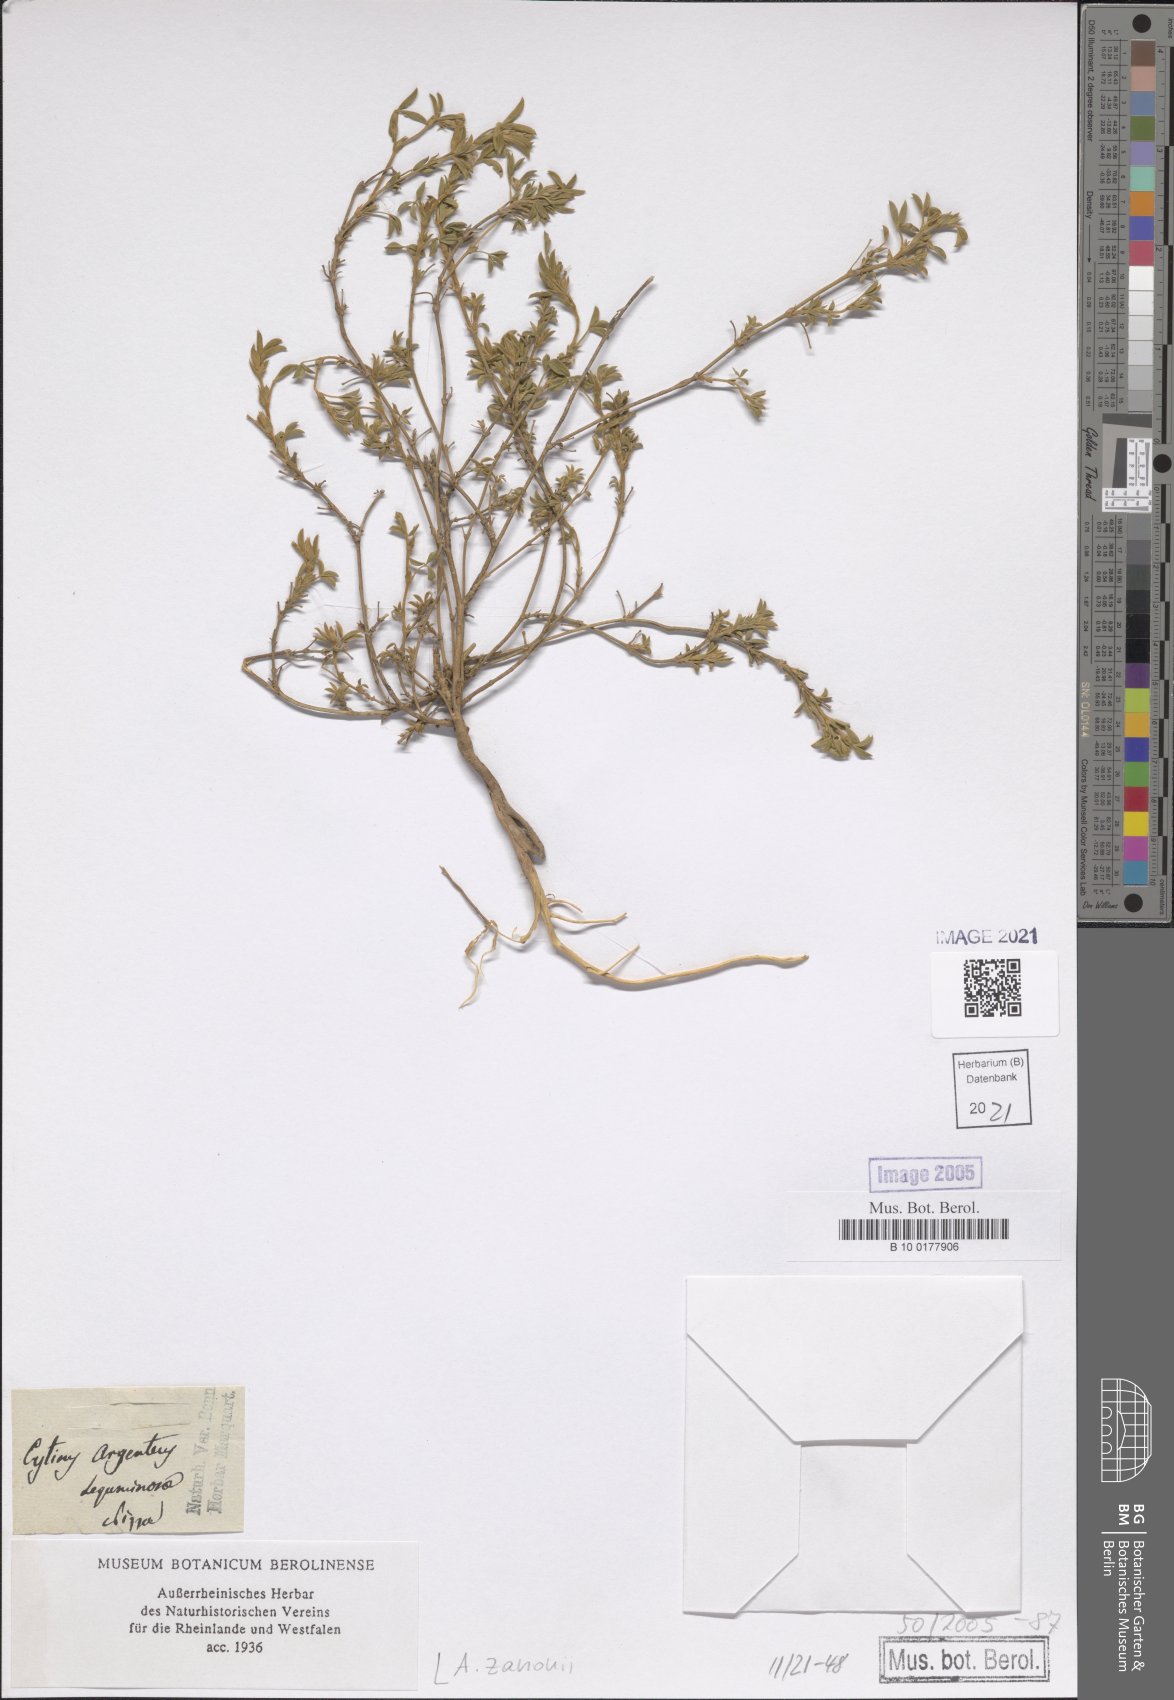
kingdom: Plantae
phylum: Tracheophyta
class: Magnoliopsida
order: Fabales
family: Fabaceae
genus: Argyrolobium
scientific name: Argyrolobium zanonii
